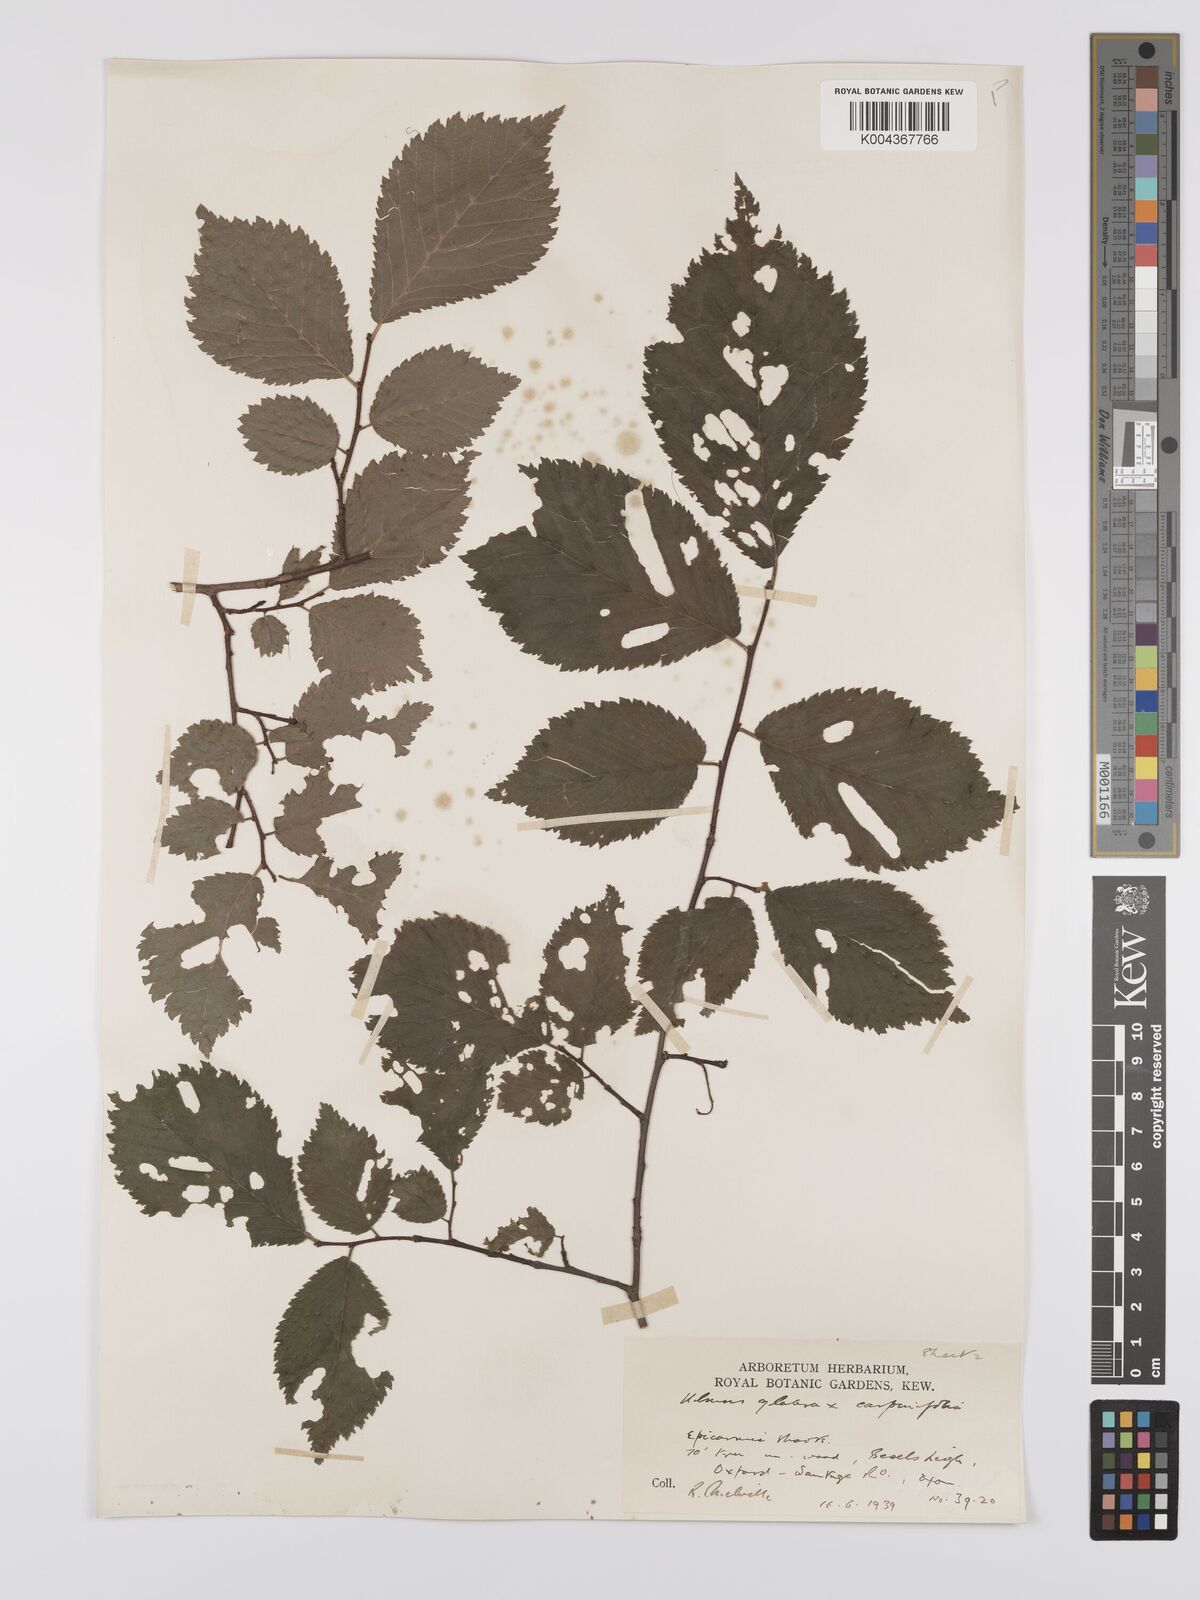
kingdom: Plantae
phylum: Tracheophyta
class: Magnoliopsida
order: Rosales
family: Ulmaceae
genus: Ulmus
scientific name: Ulmus
